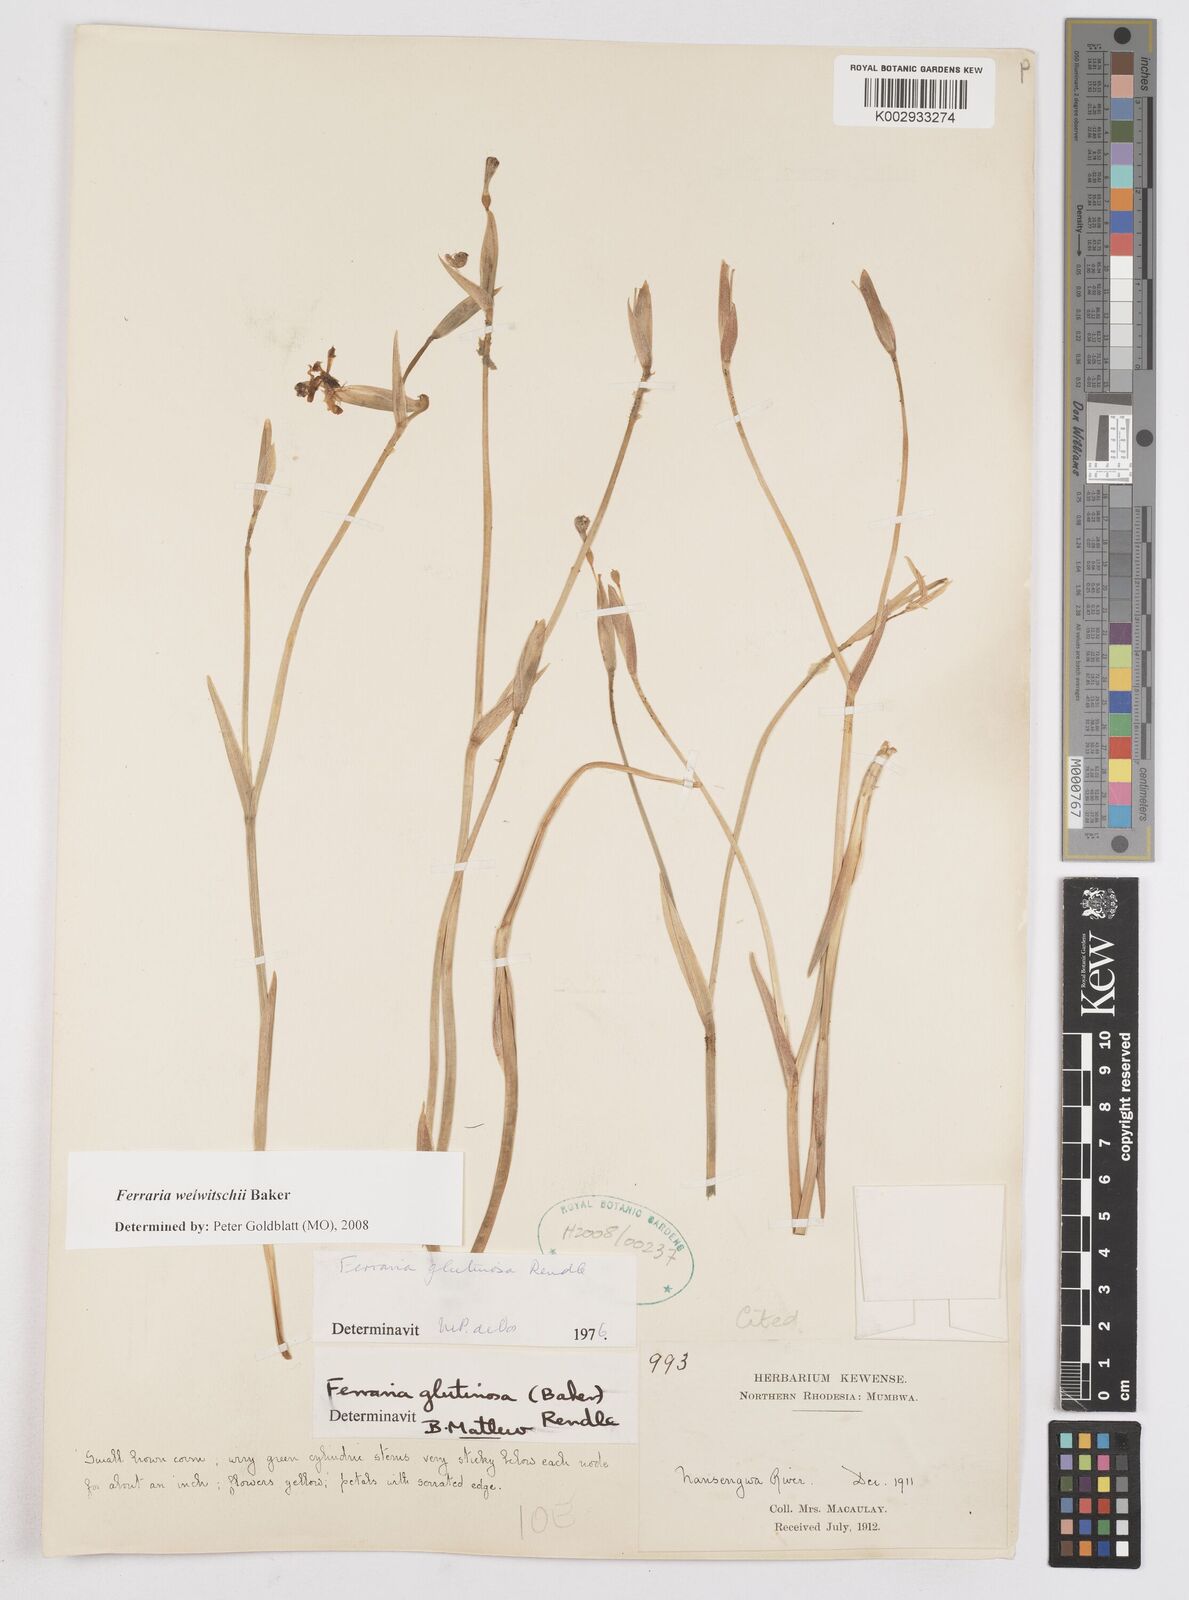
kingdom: Plantae
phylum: Tracheophyta
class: Liliopsida
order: Asparagales
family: Iridaceae
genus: Ferraria
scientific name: Ferraria welwitschii
